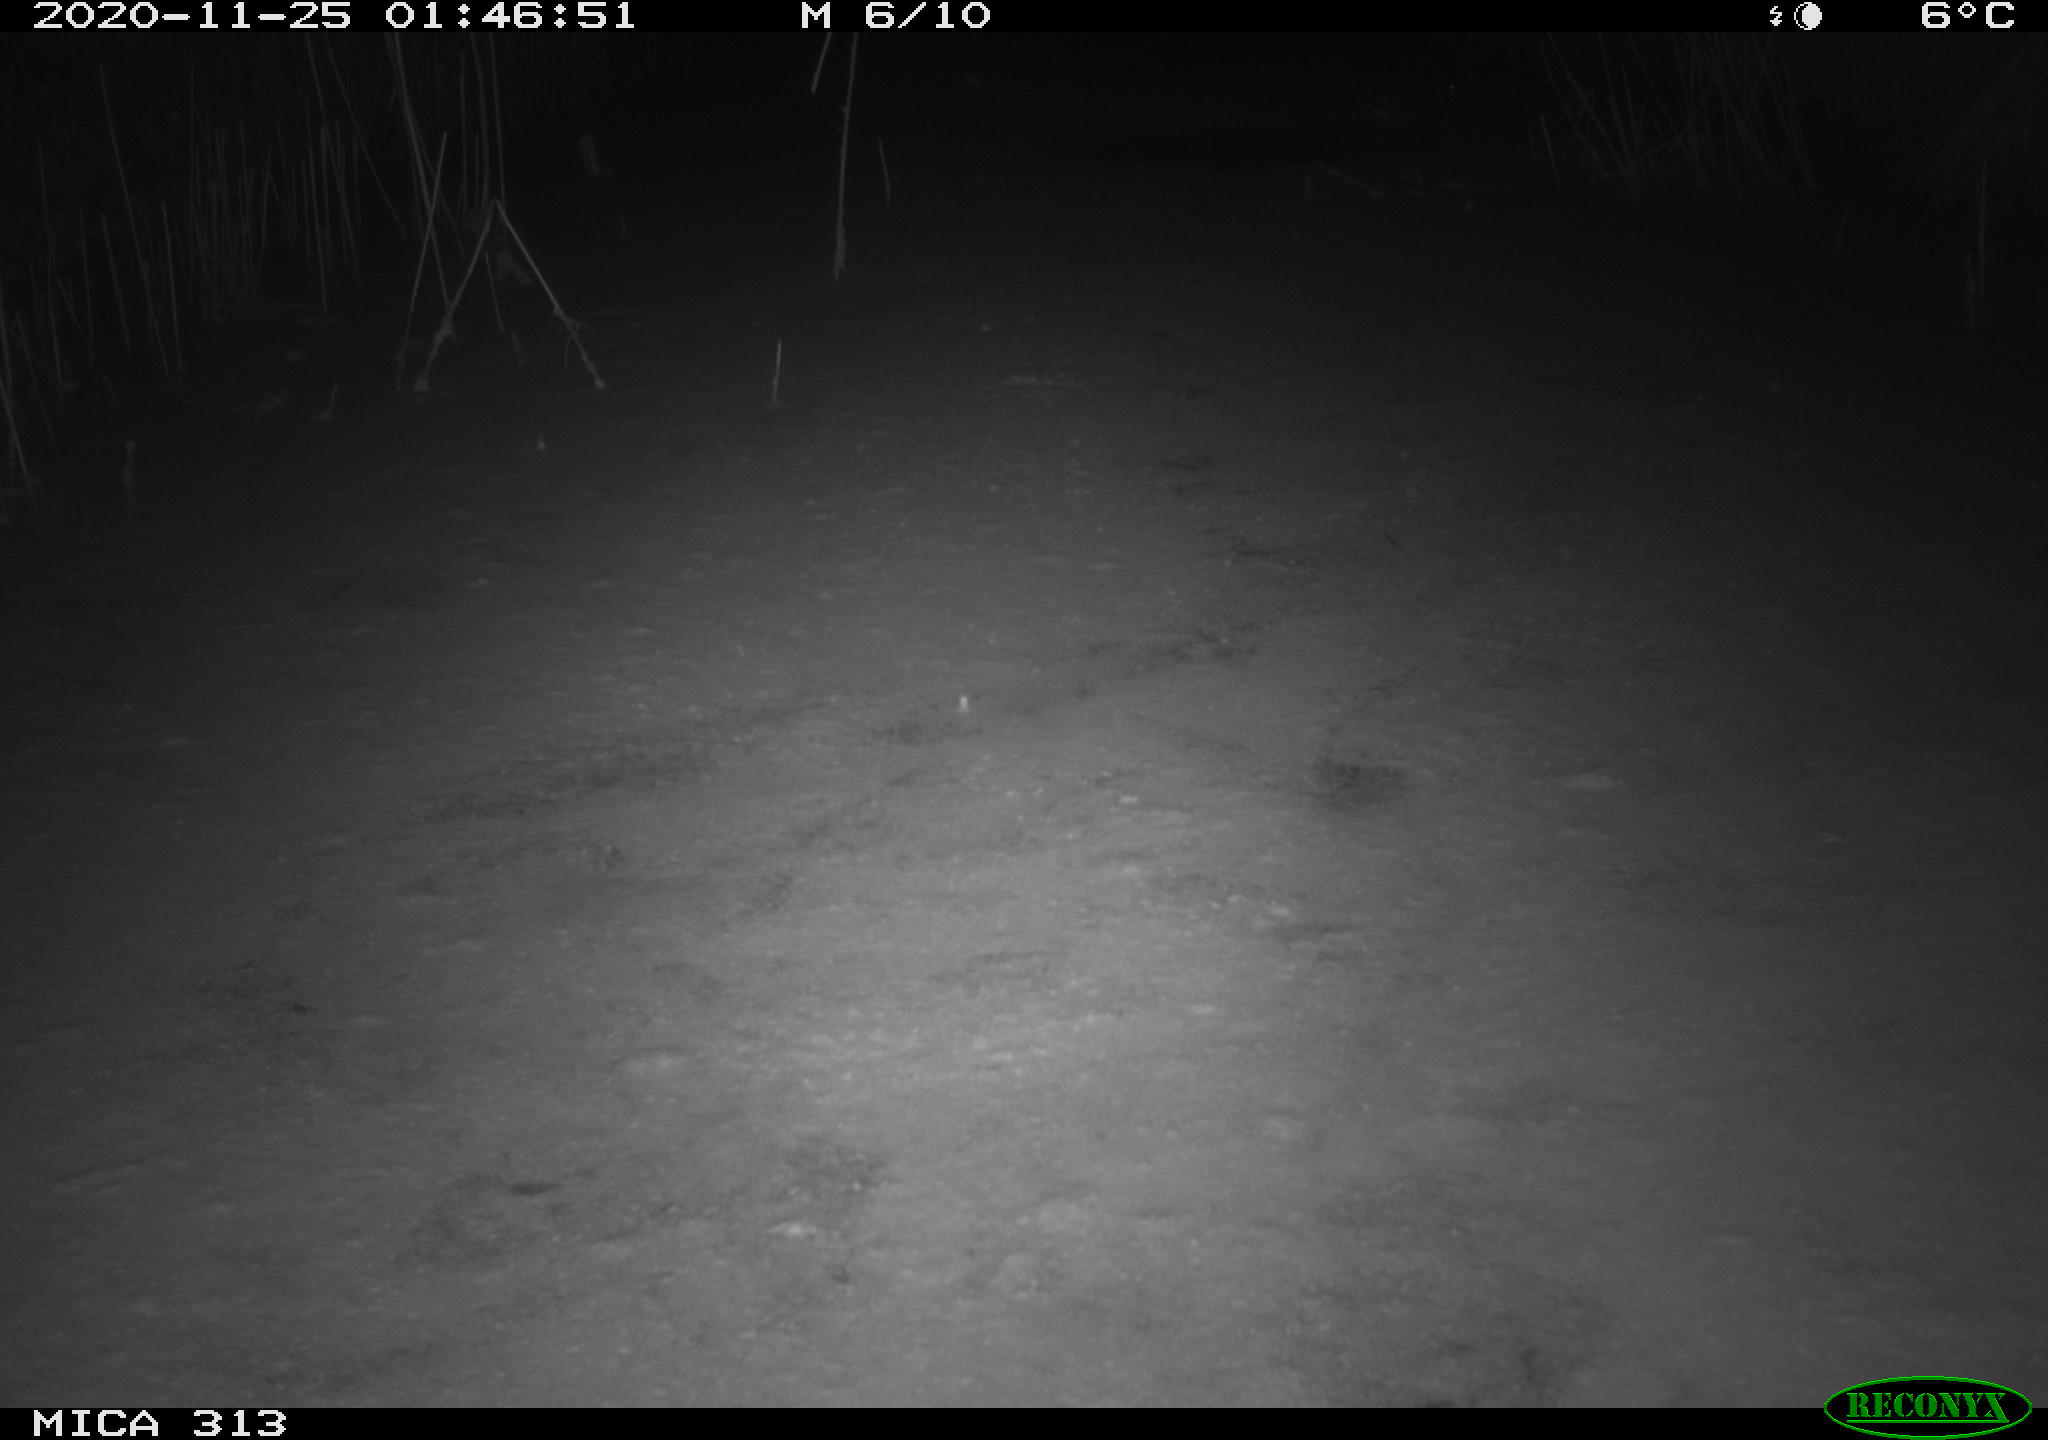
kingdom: Animalia
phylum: Chordata
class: Aves
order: Gruiformes
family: Rallidae
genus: Fulica
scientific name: Fulica atra
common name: Eurasian coot
